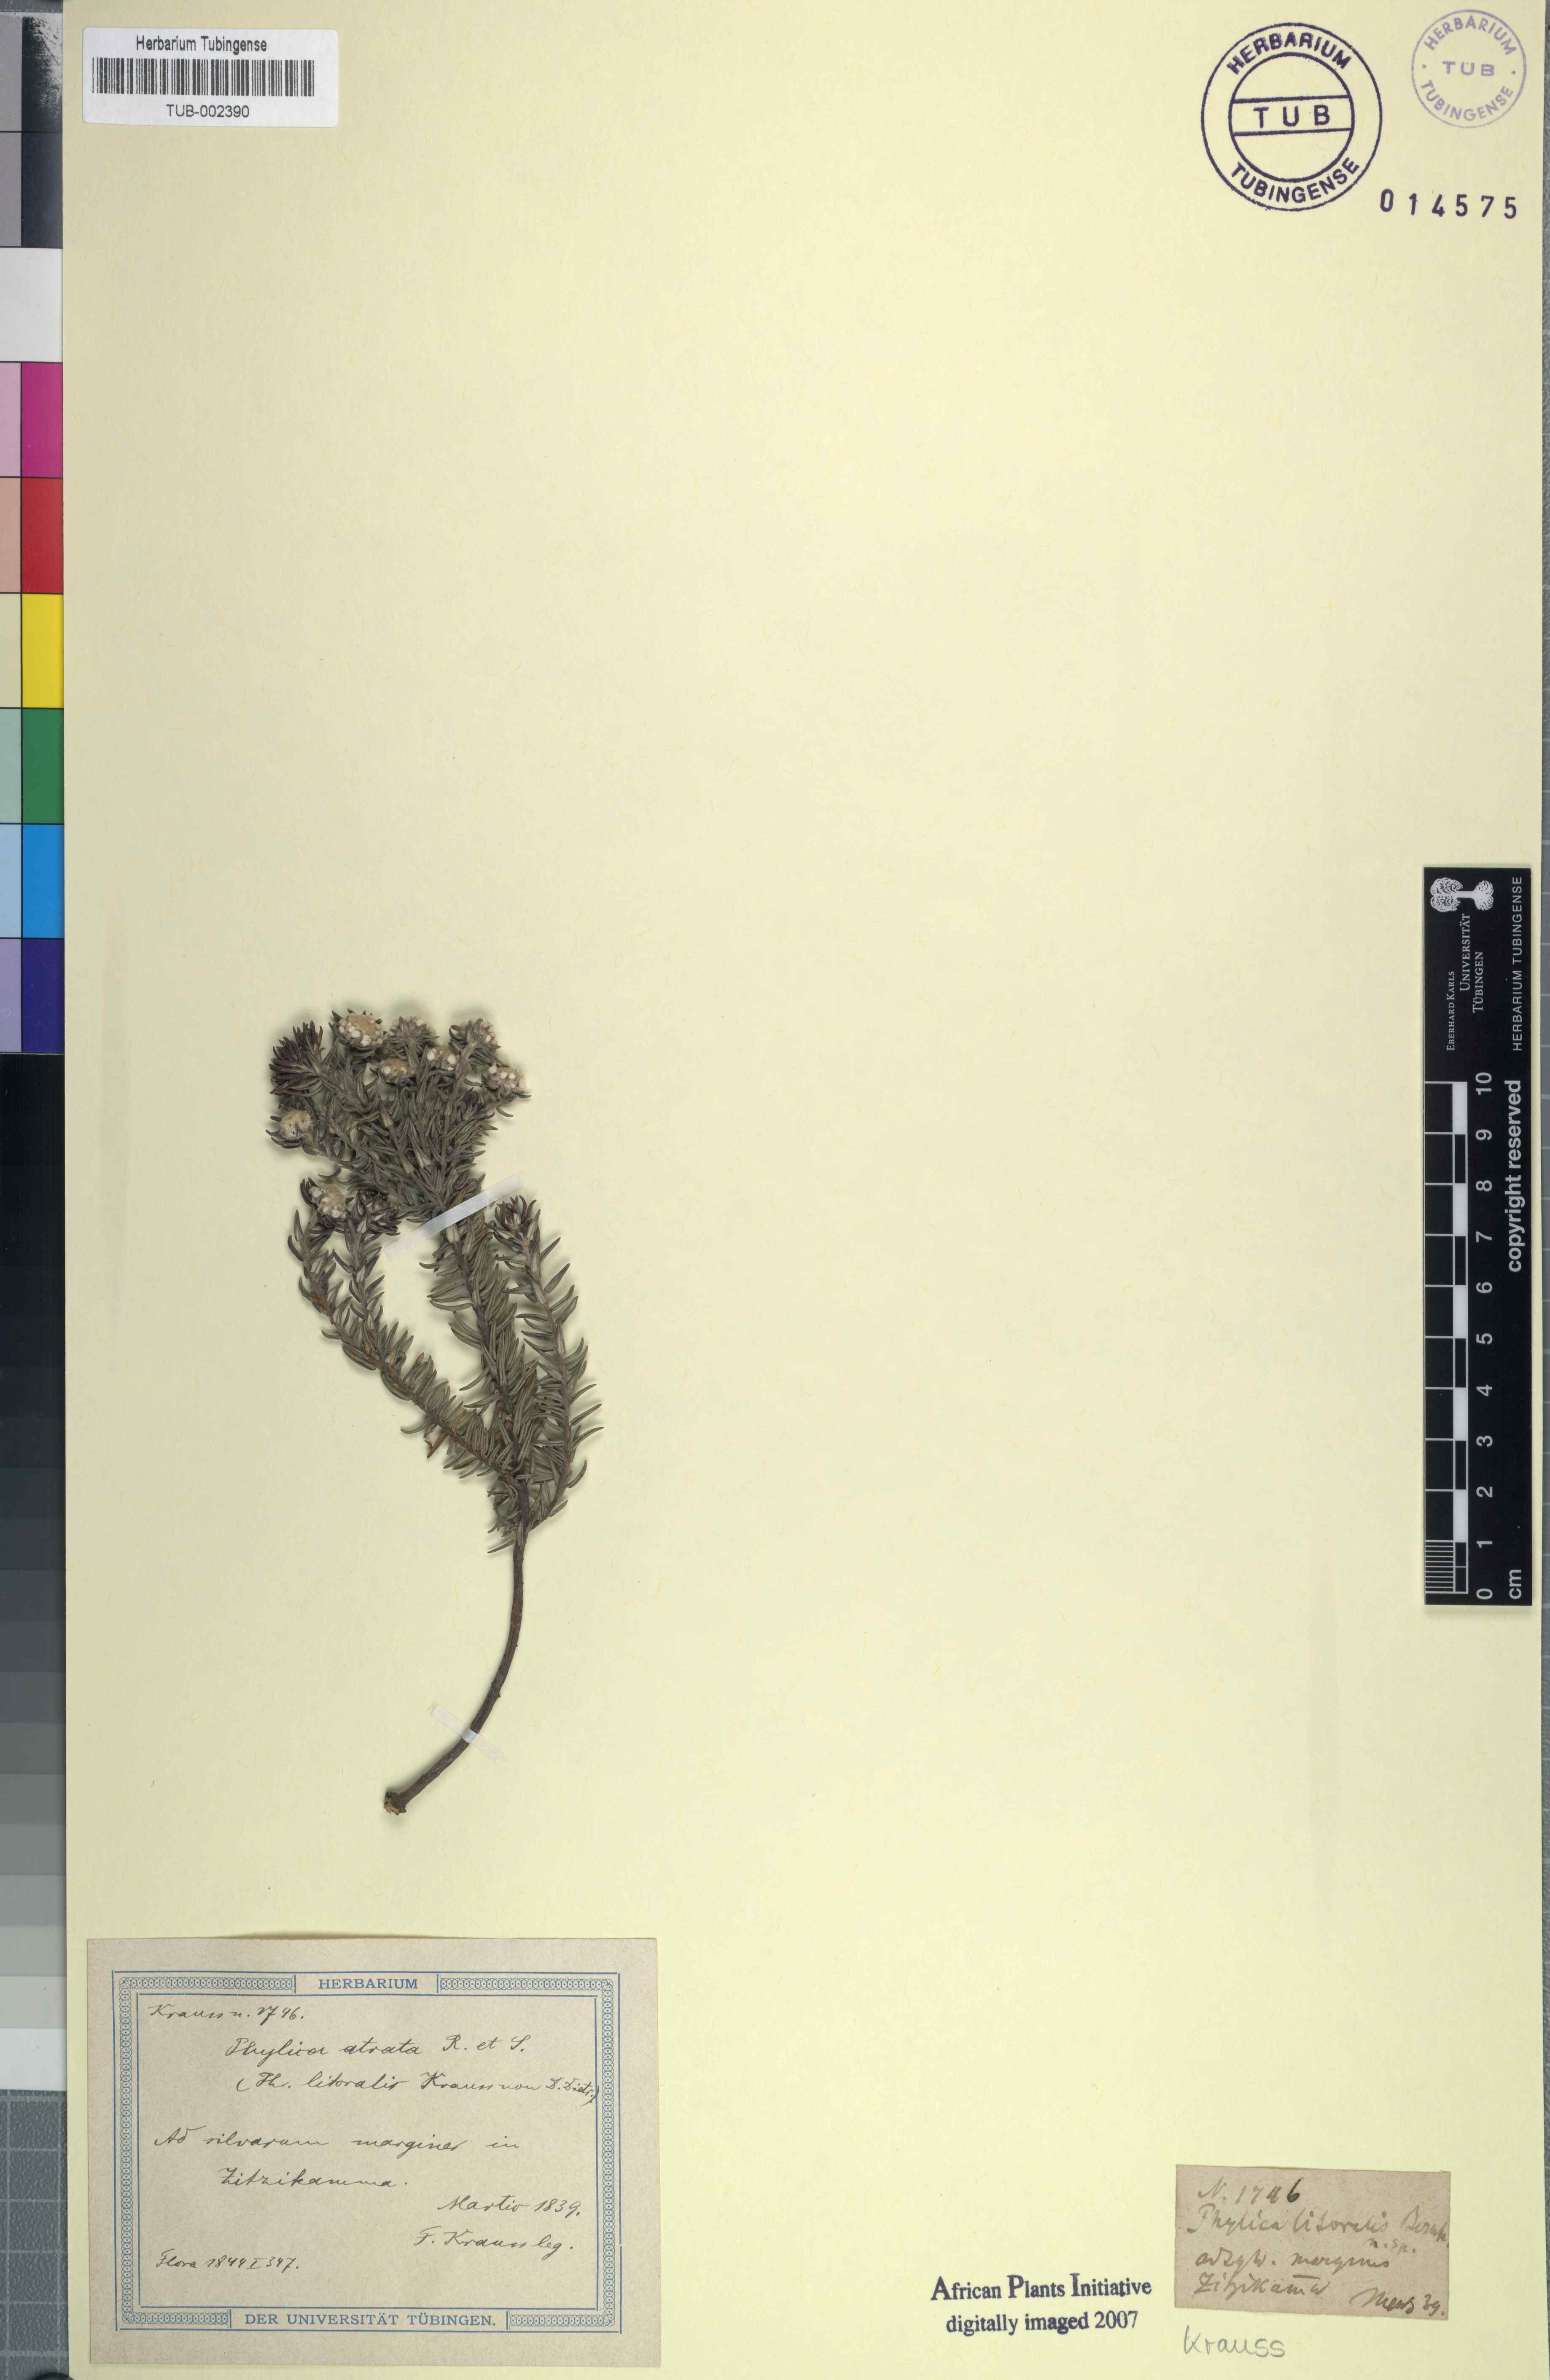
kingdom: Plantae
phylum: Tracheophyta
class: Magnoliopsida
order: Rosales
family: Rhamnaceae
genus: Phylica
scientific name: Phylica litoralis
